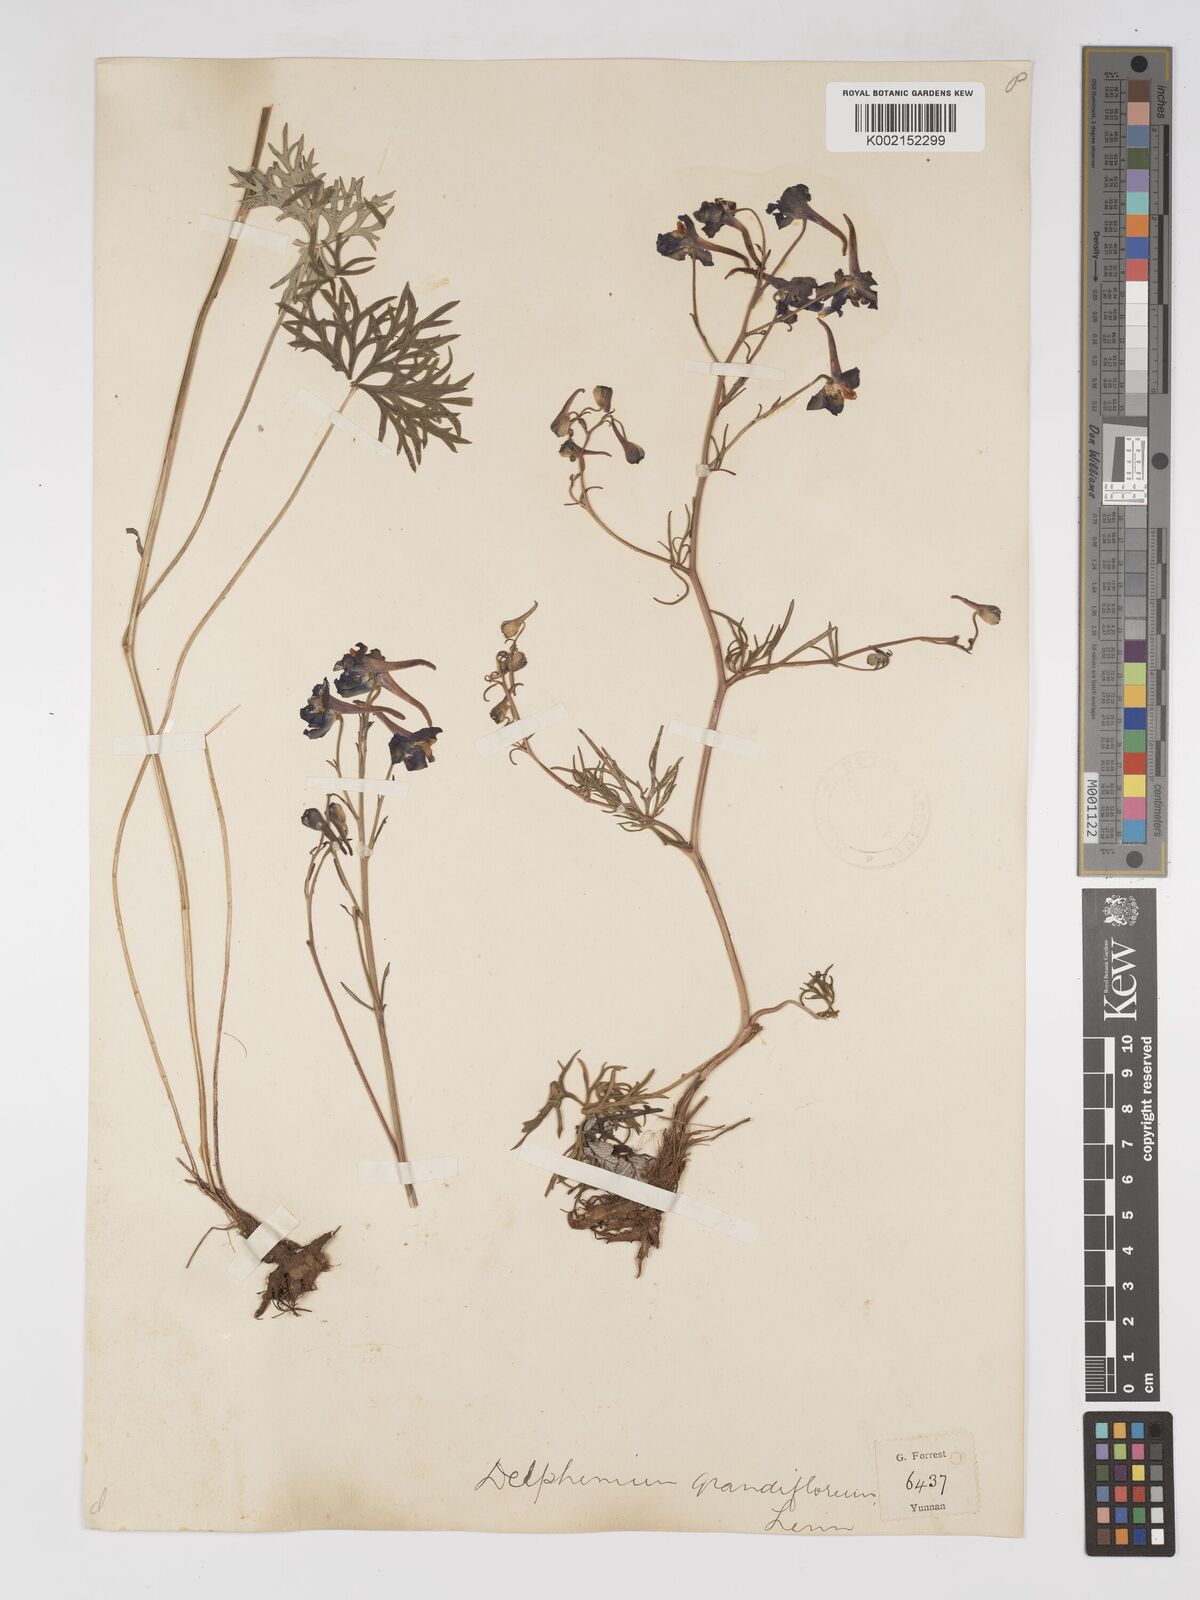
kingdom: Plantae
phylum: Tracheophyta
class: Magnoliopsida
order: Ranunculales
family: Ranunculaceae
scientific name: Ranunculaceae
